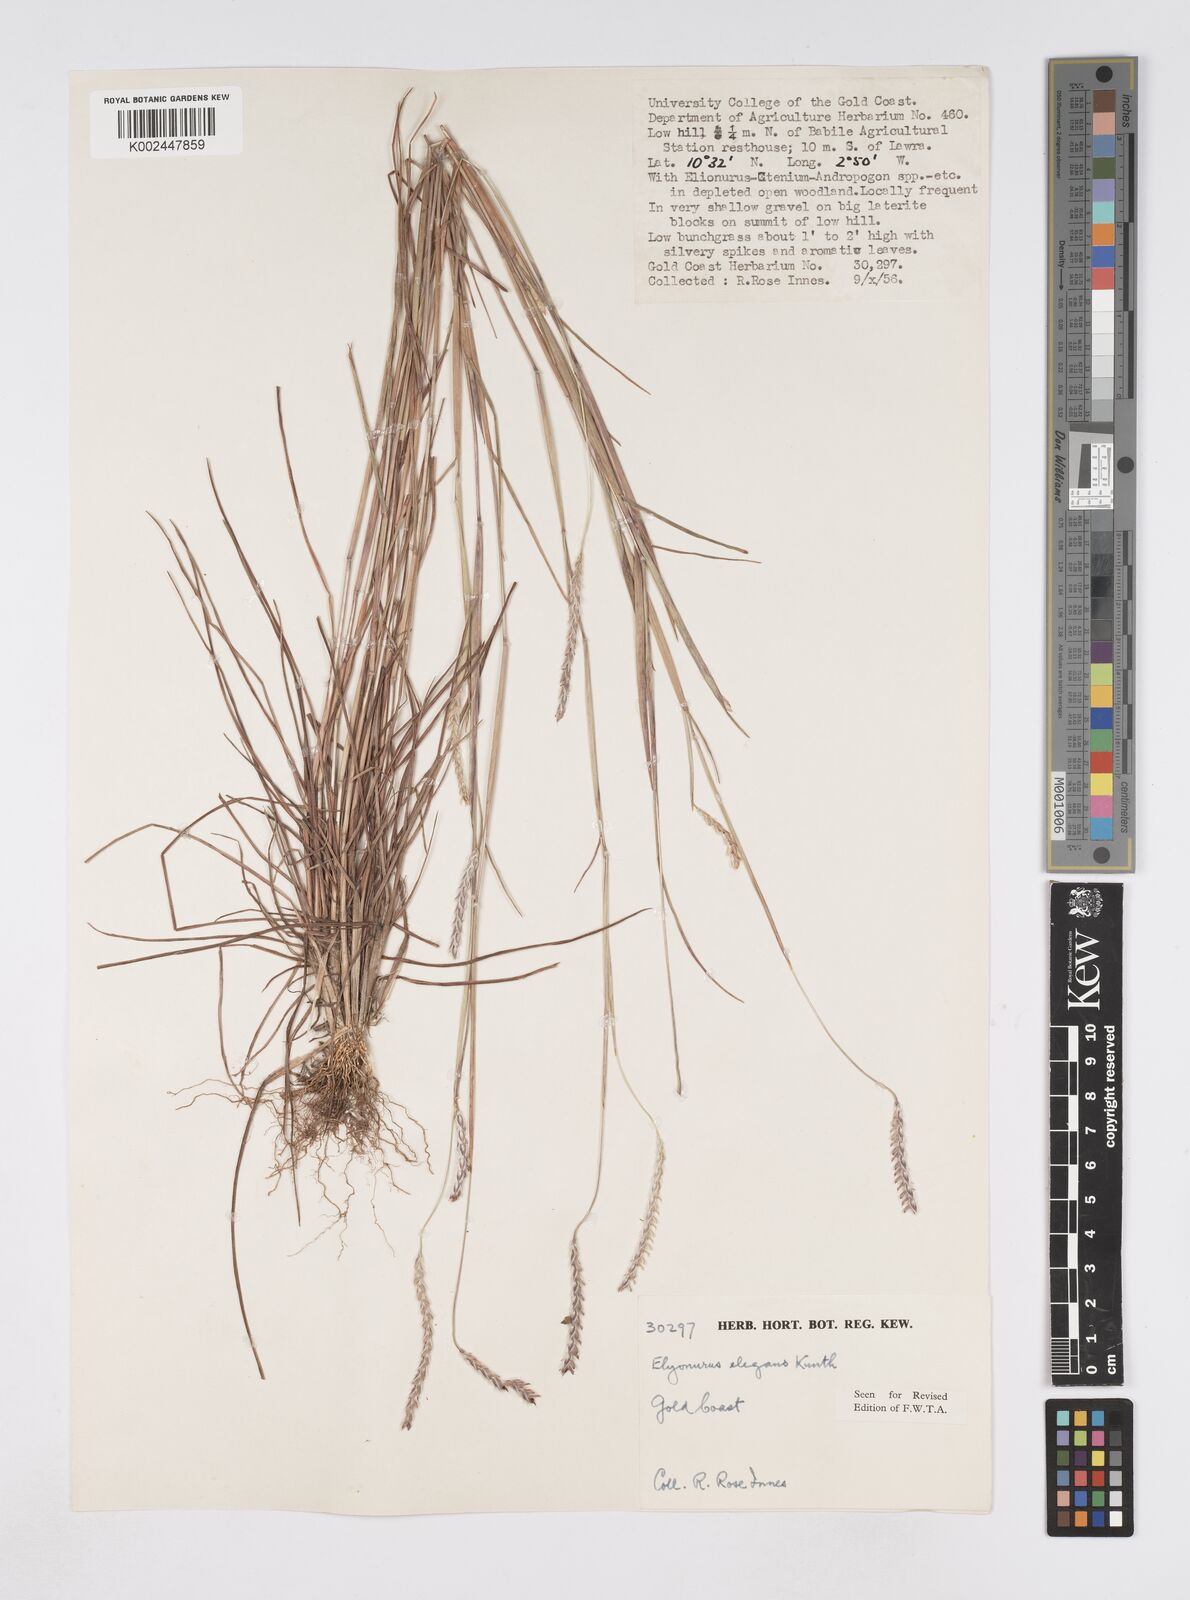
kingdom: Plantae
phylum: Tracheophyta
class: Liliopsida
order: Poales
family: Poaceae
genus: Elionurus
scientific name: Elionurus elegans
